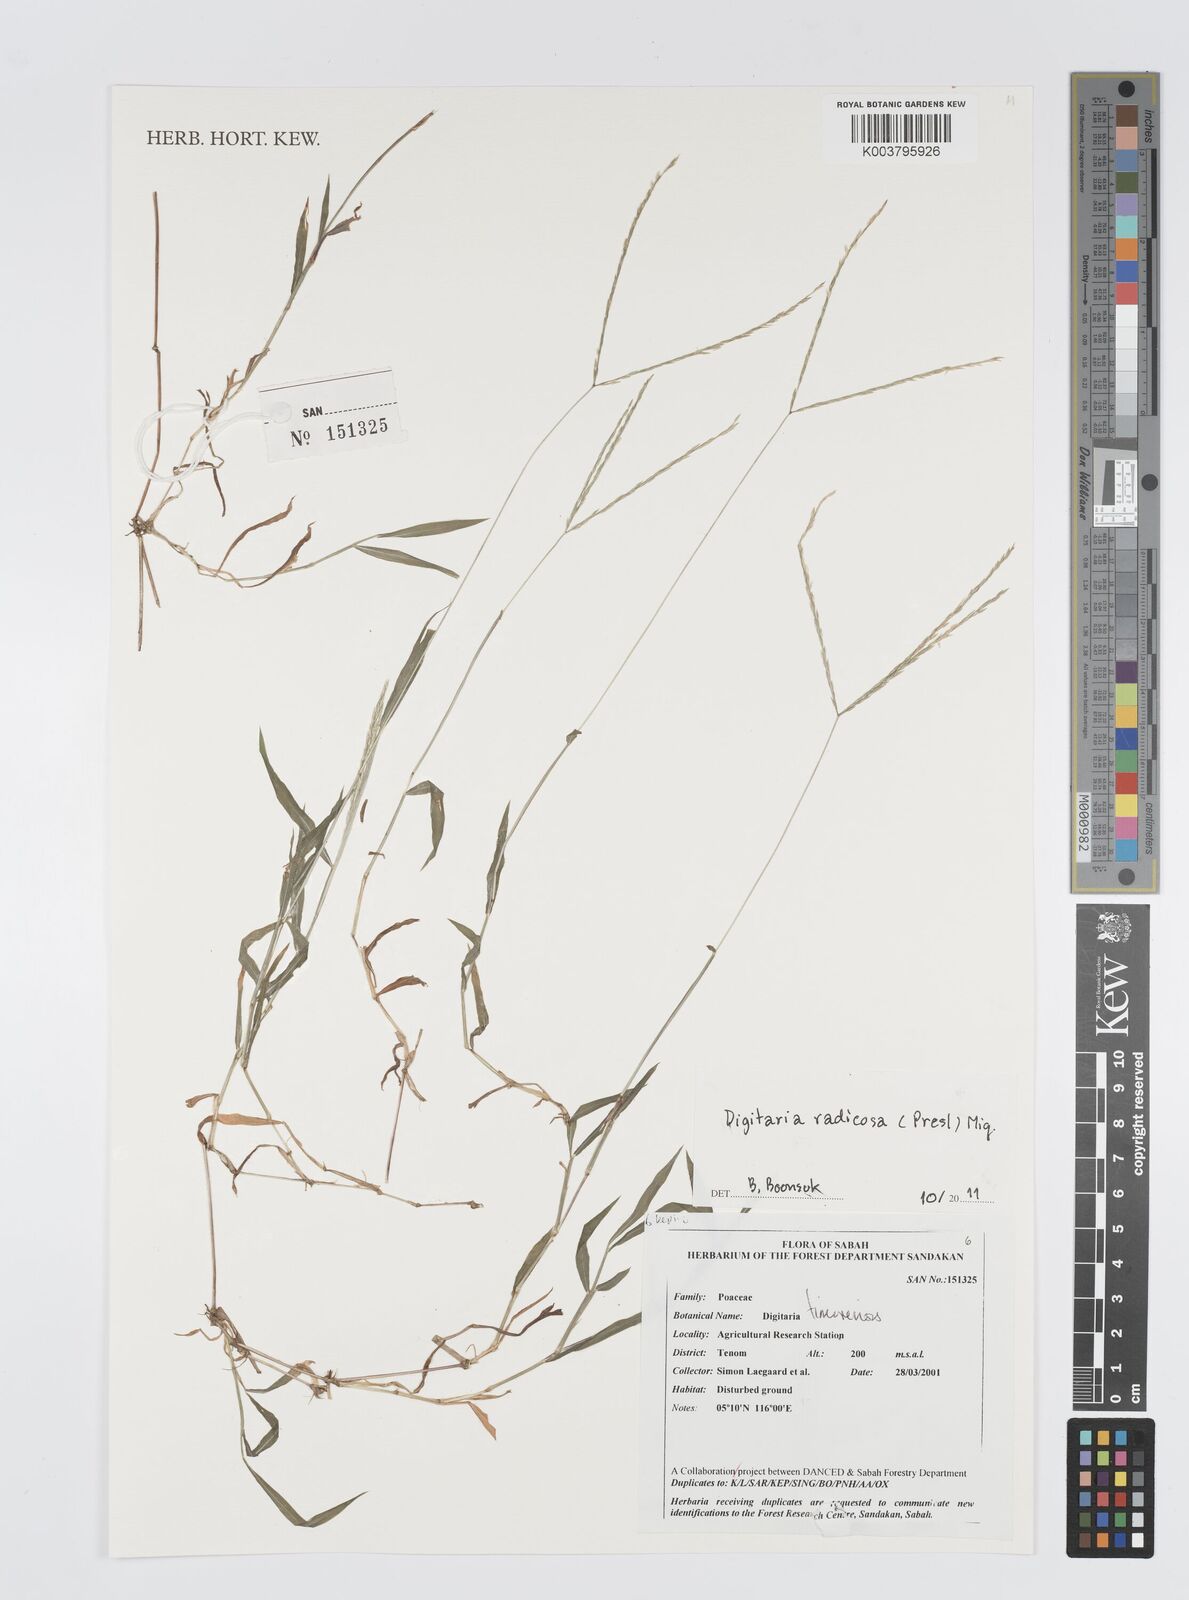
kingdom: Plantae
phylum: Tracheophyta
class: Liliopsida
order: Poales
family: Poaceae
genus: Digitaria
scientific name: Digitaria radicosa
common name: Trailing crabgrass
